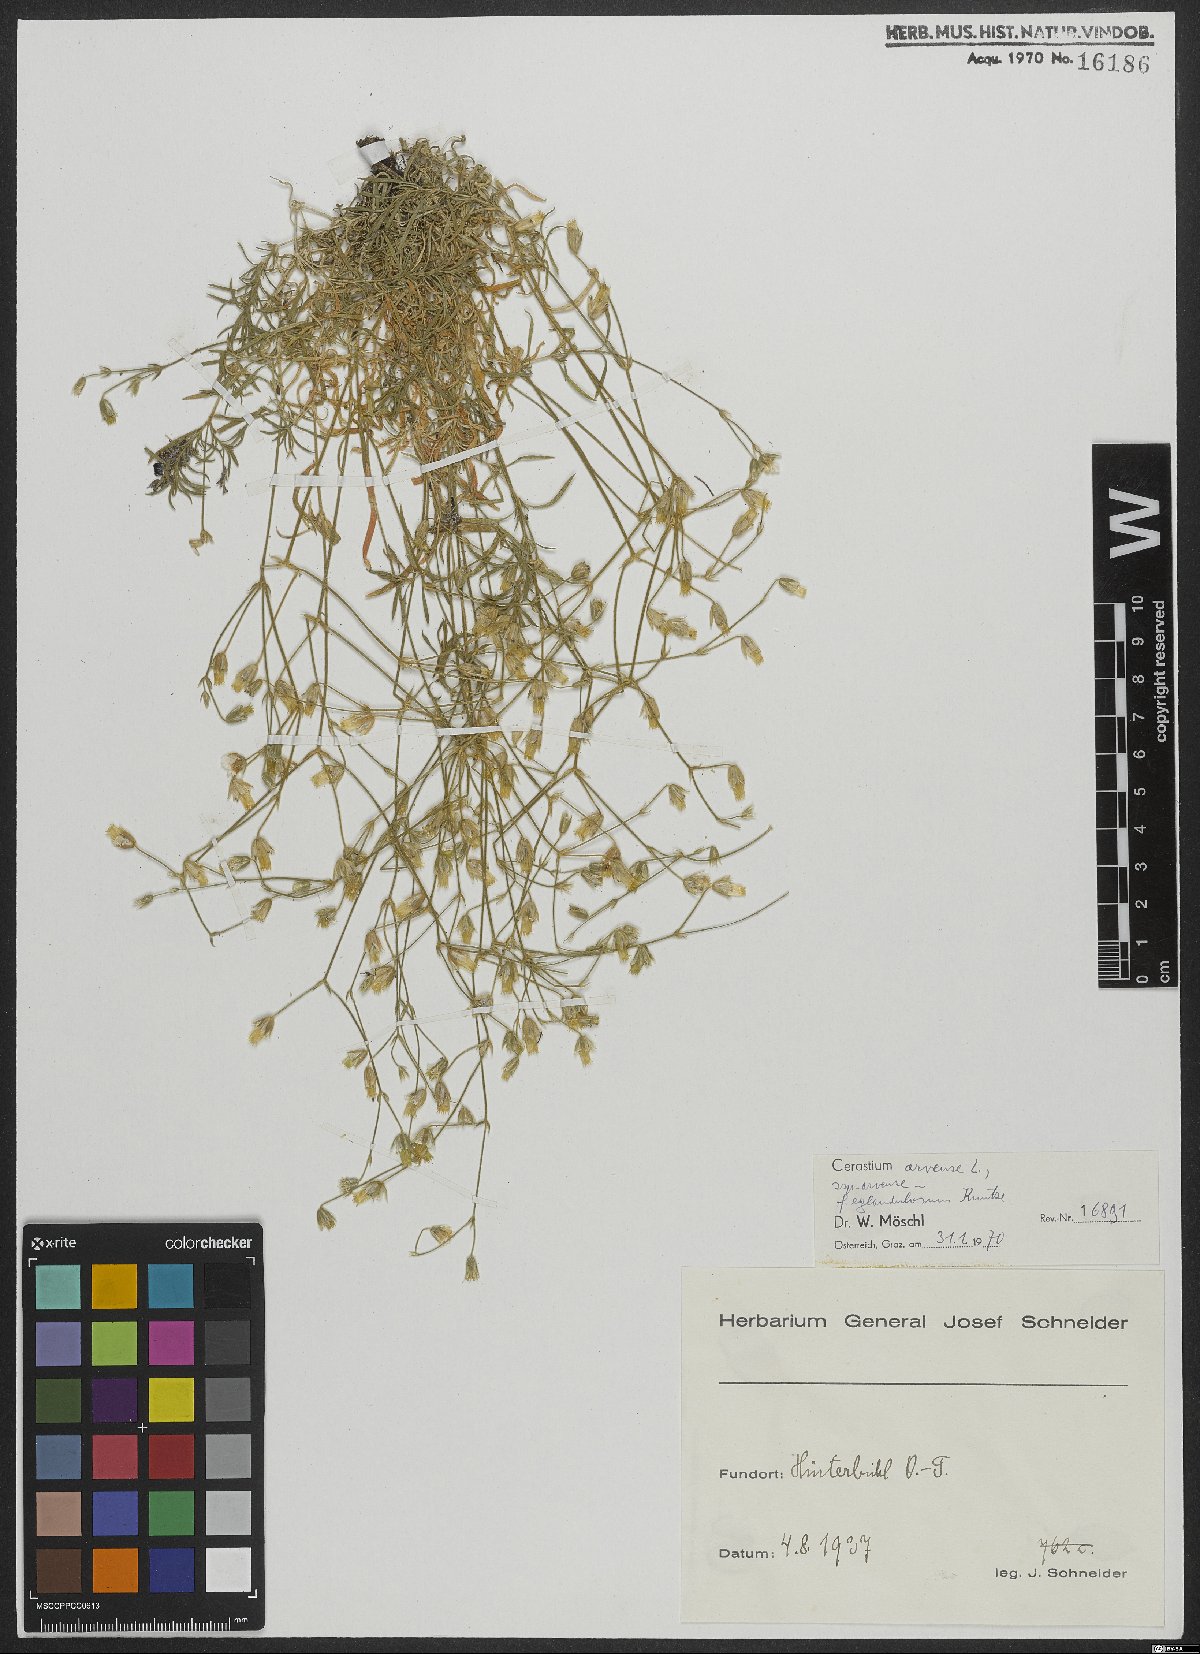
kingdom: Plantae
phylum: Tracheophyta
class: Magnoliopsida
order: Caryophyllales
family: Caryophyllaceae
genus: Cerastium
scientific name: Cerastium arvense
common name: Field mouse-ear
